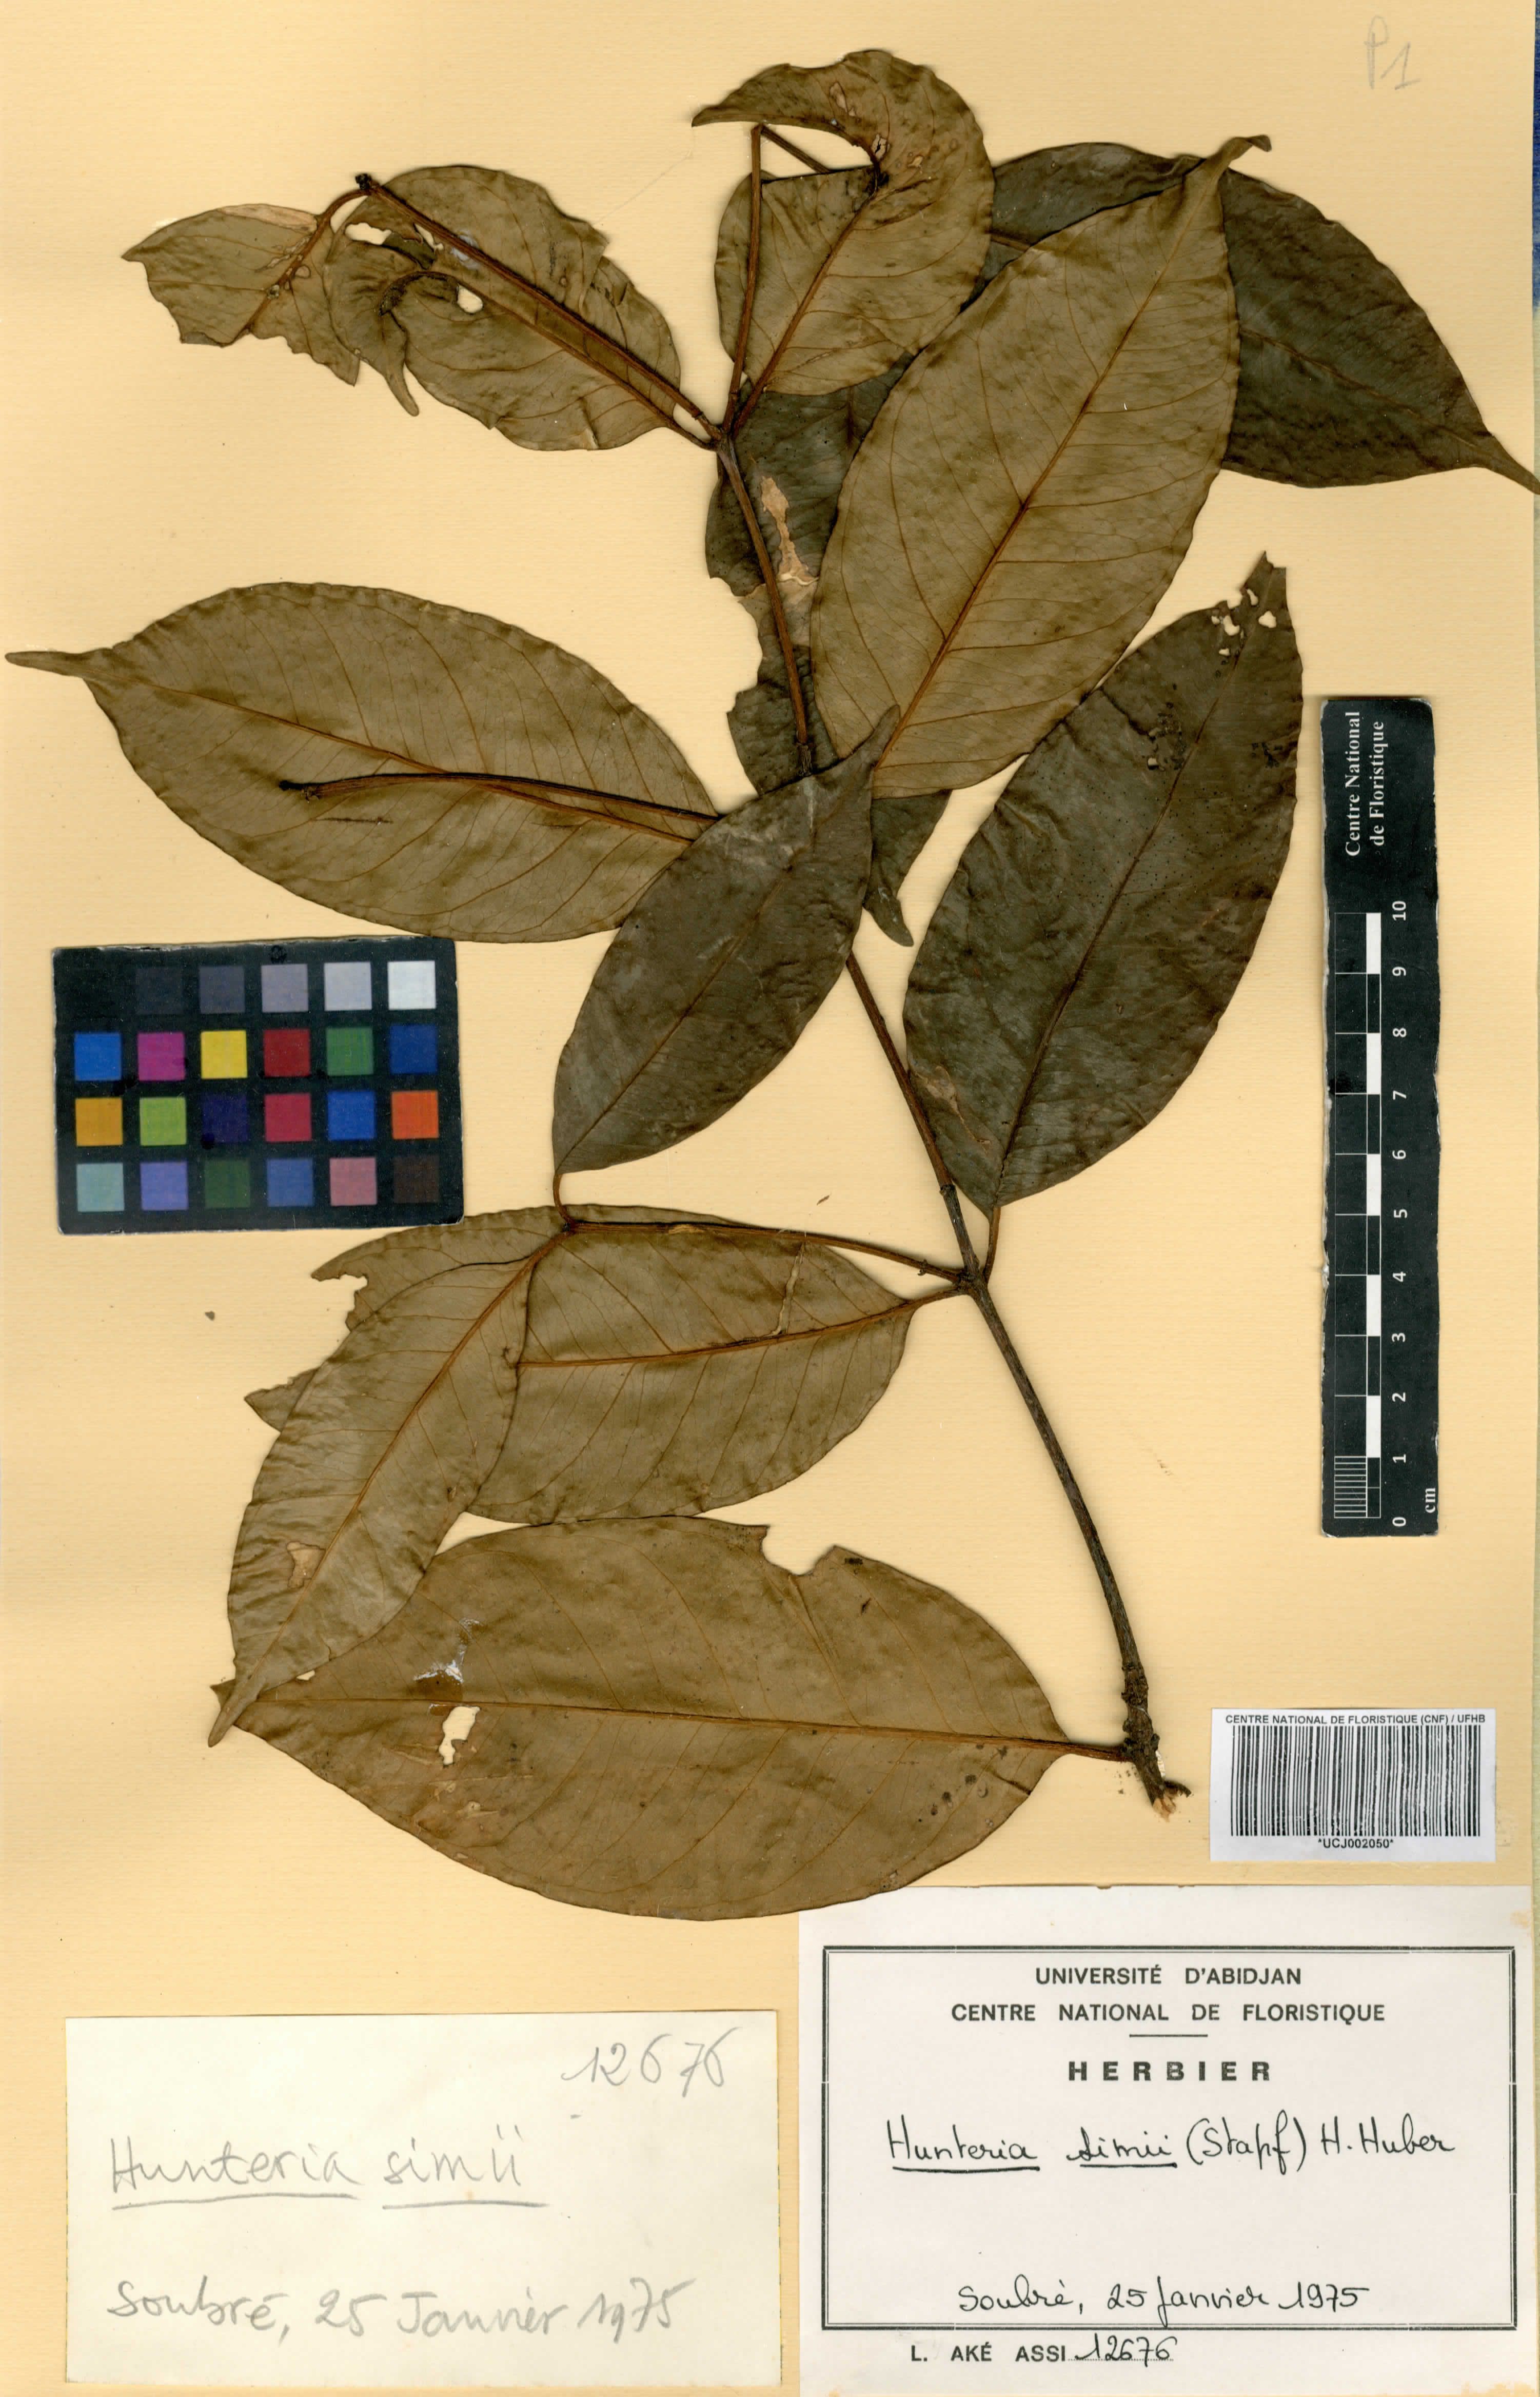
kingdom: Plantae
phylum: Tracheophyta
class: Magnoliopsida
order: Gentianales
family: Apocynaceae
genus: Hunteria
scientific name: Hunteria simii
